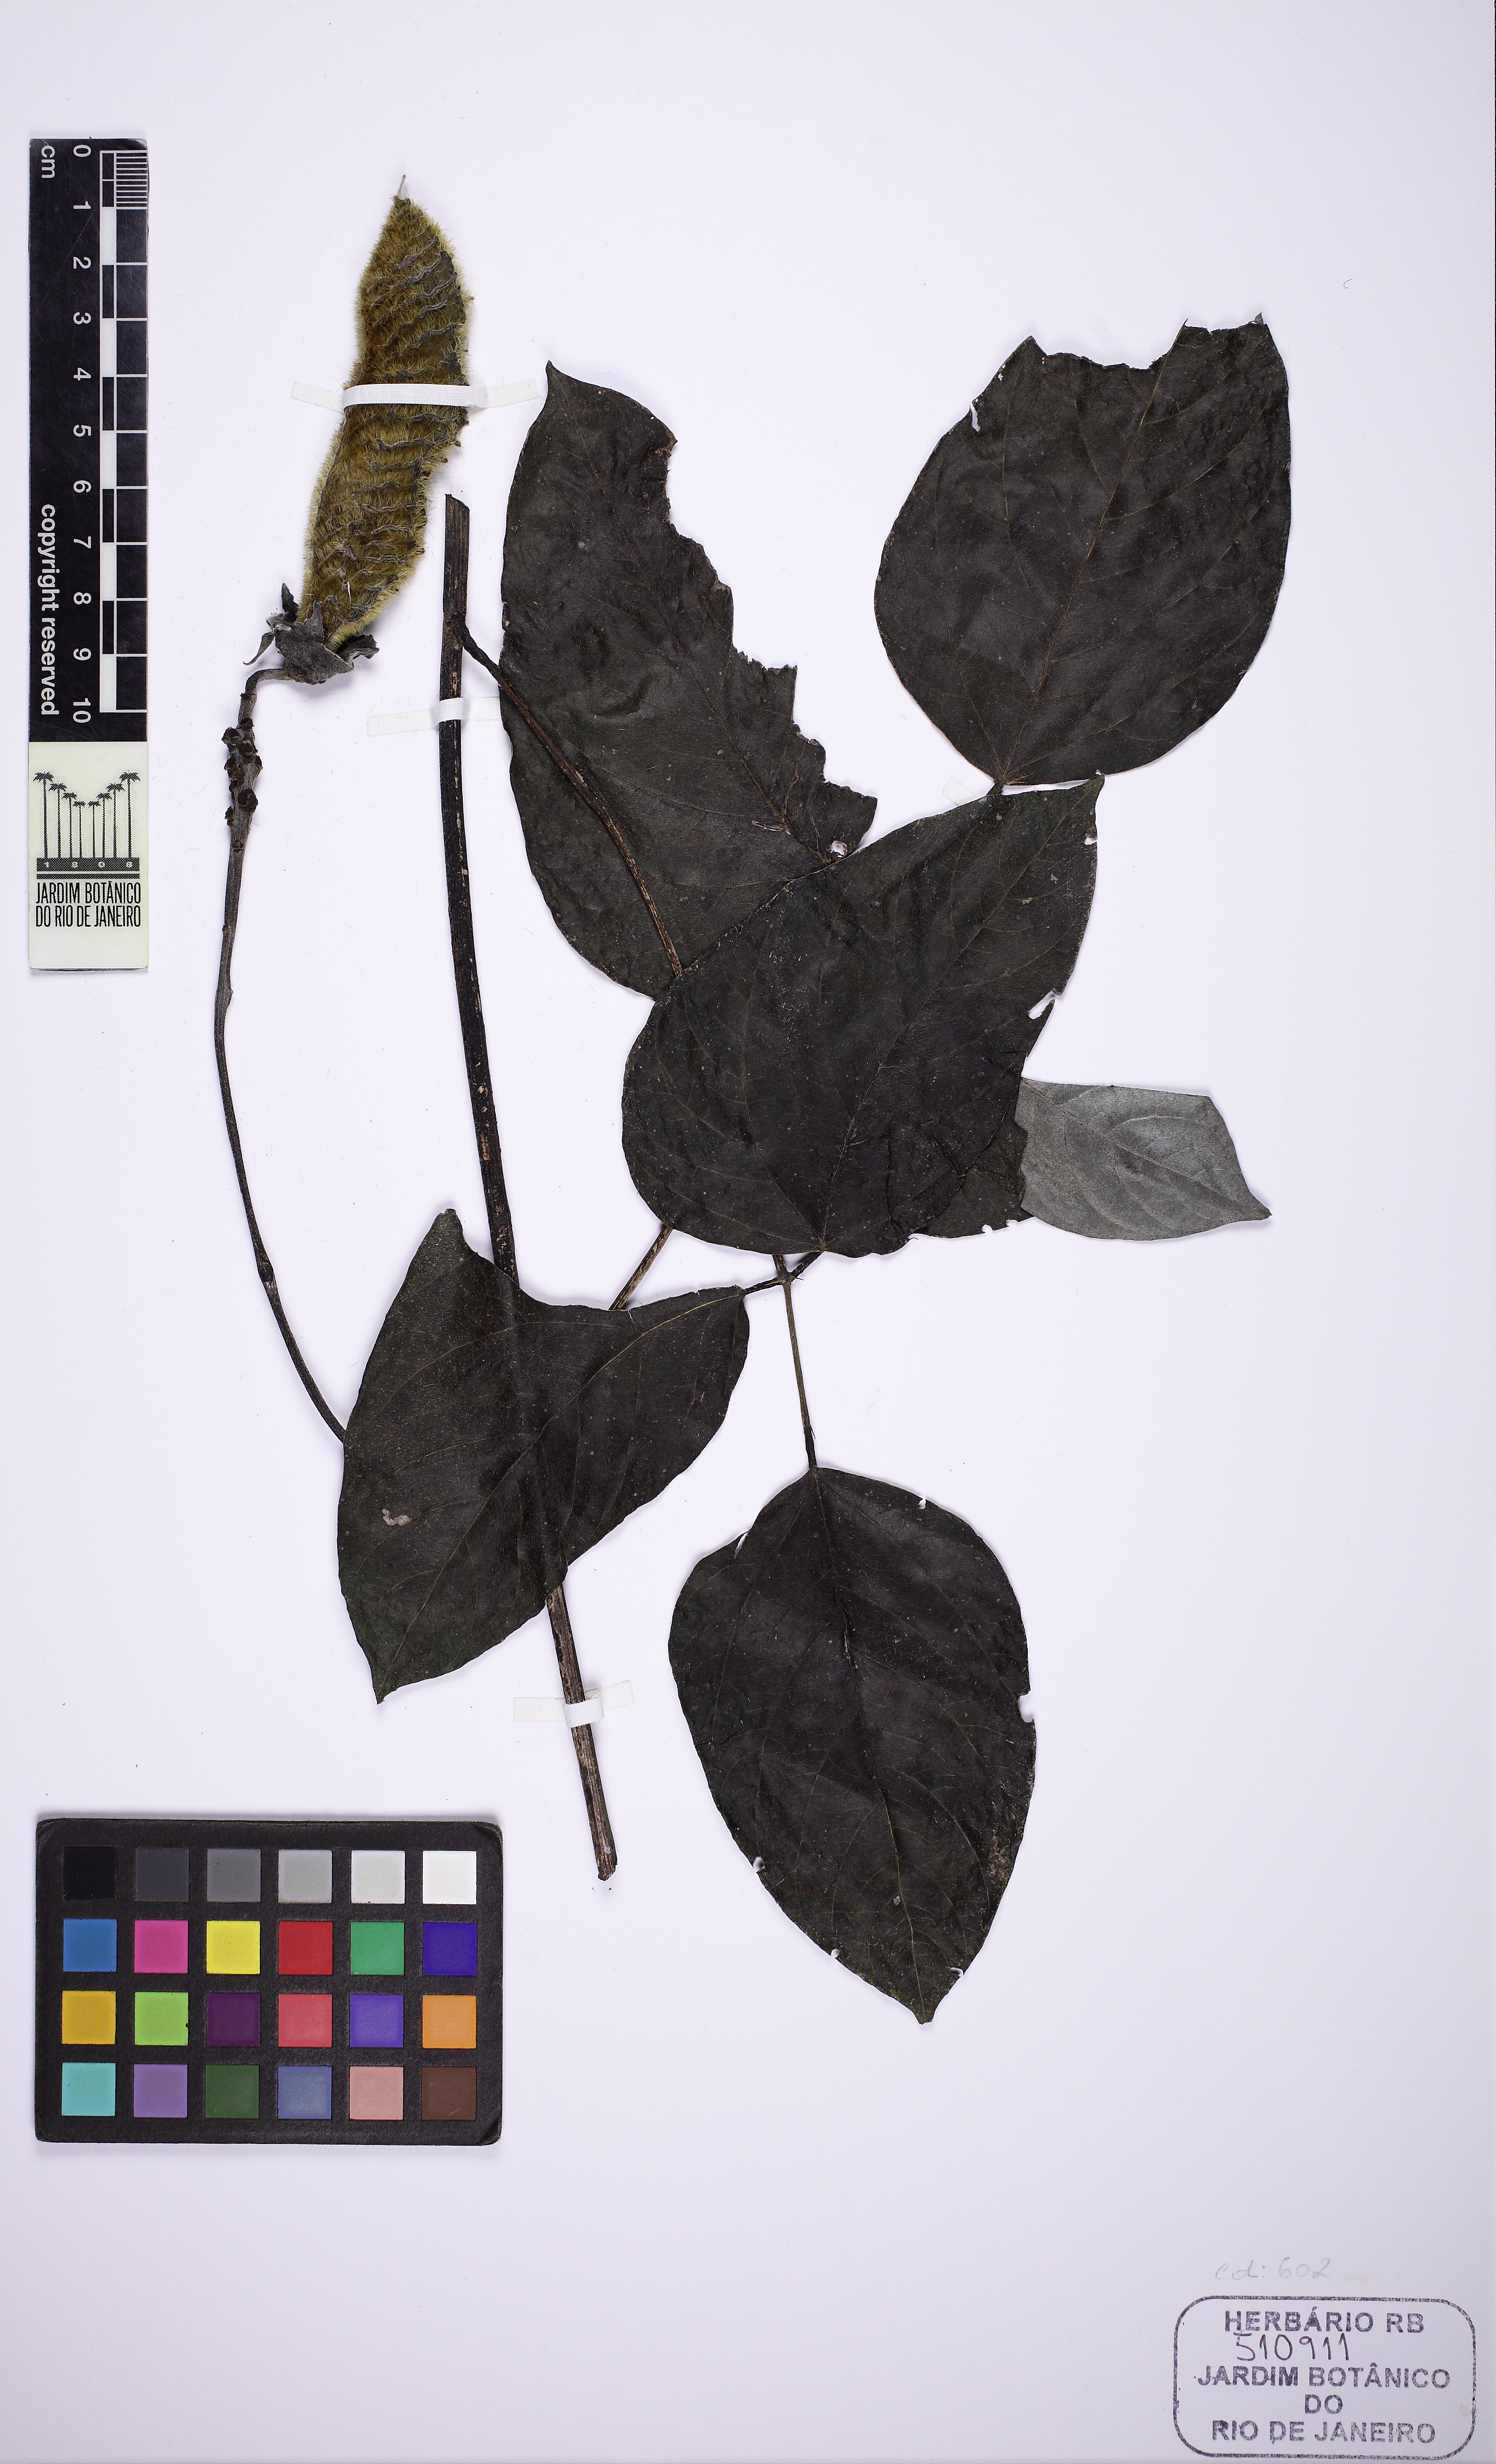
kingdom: Plantae
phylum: Tracheophyta
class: Magnoliopsida
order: Fabales
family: Fabaceae
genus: Mucuna
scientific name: Mucuna sloanei
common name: Horse-eye bean
